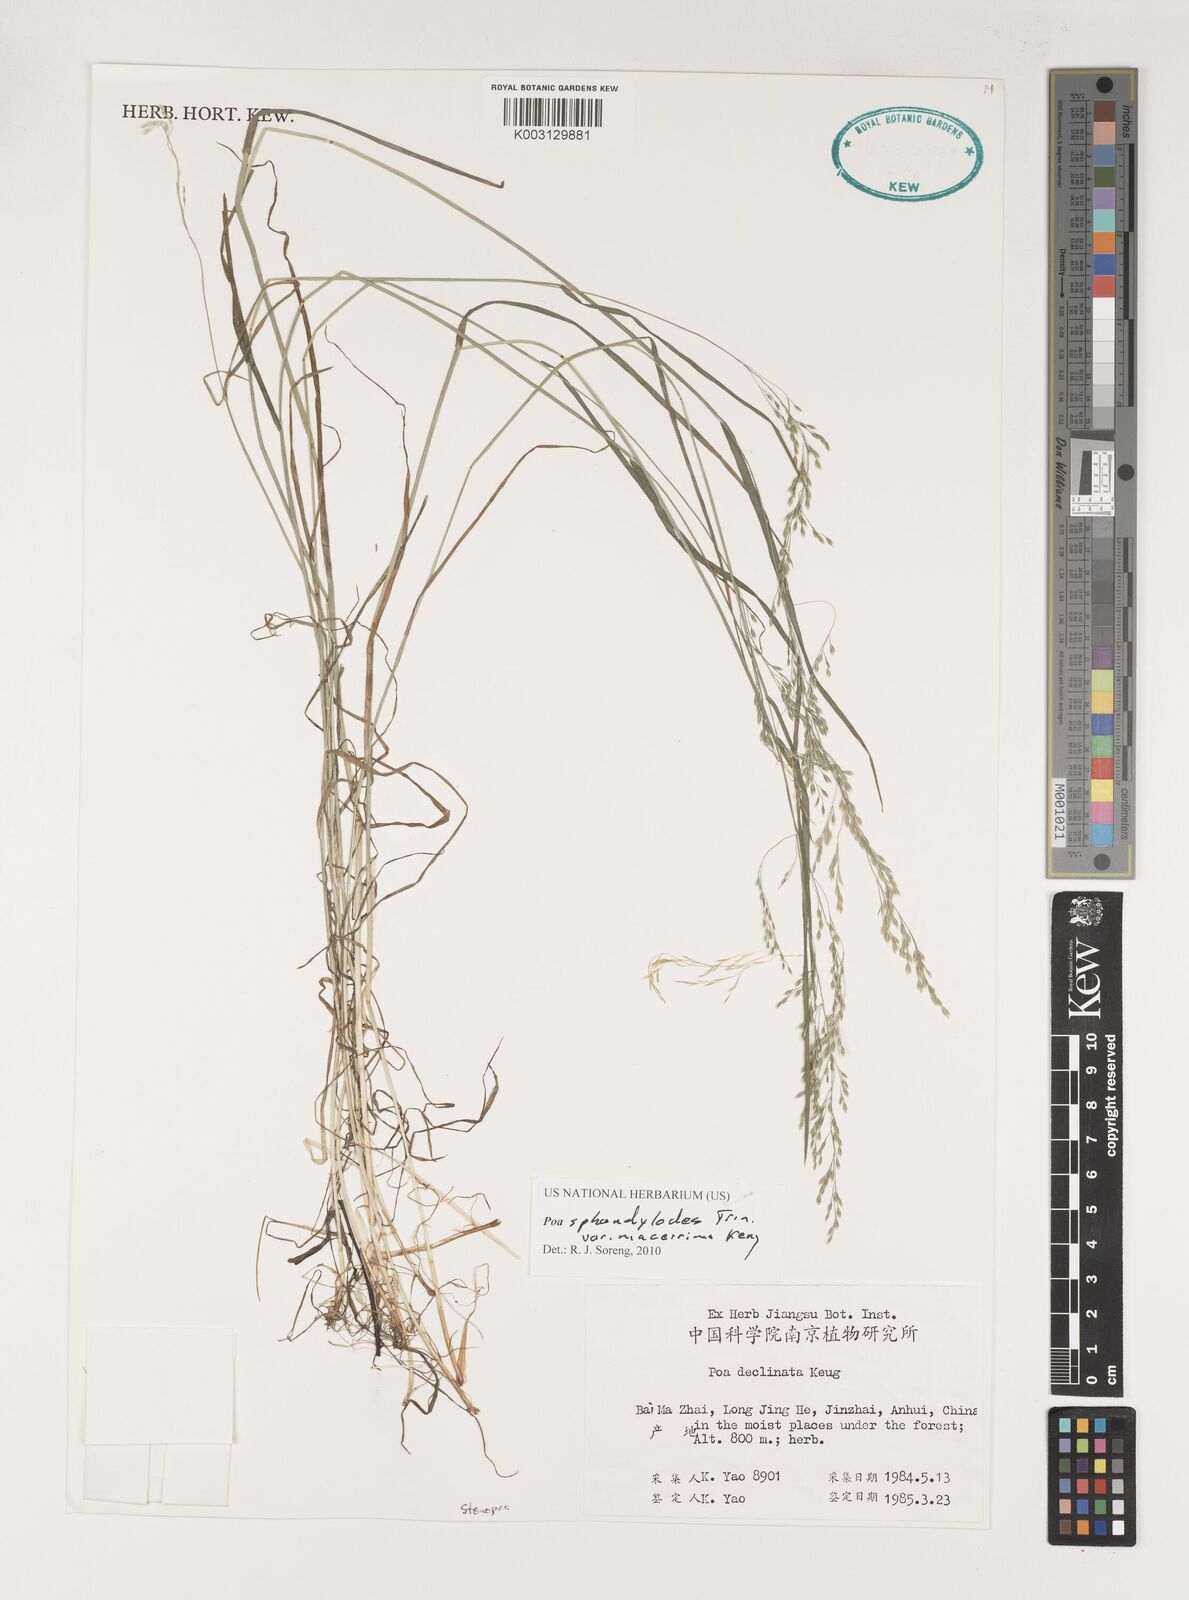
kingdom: Plantae
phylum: Tracheophyta
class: Liliopsida
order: Poales
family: Poaceae
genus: Poa
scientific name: Poa sphondylodes
